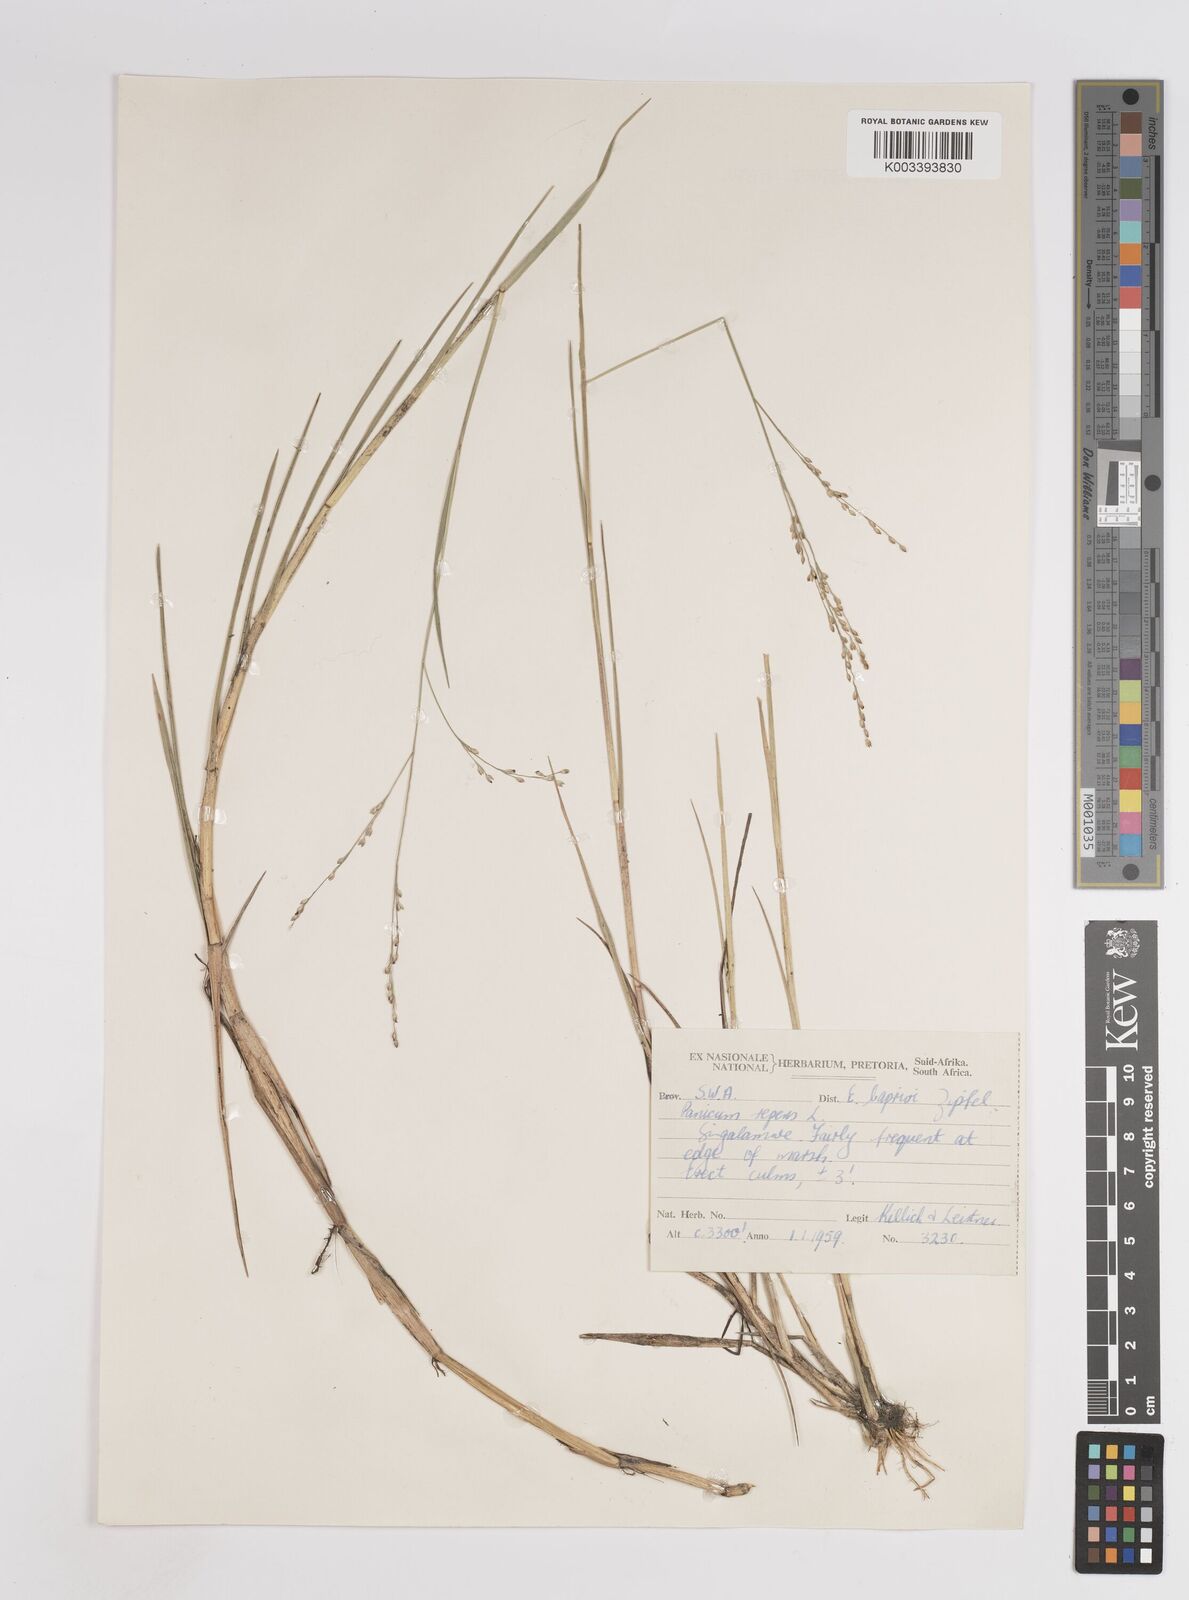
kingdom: Plantae
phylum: Tracheophyta
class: Liliopsida
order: Poales
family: Poaceae
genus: Panicum
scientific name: Panicum repens
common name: Torpedo grass
